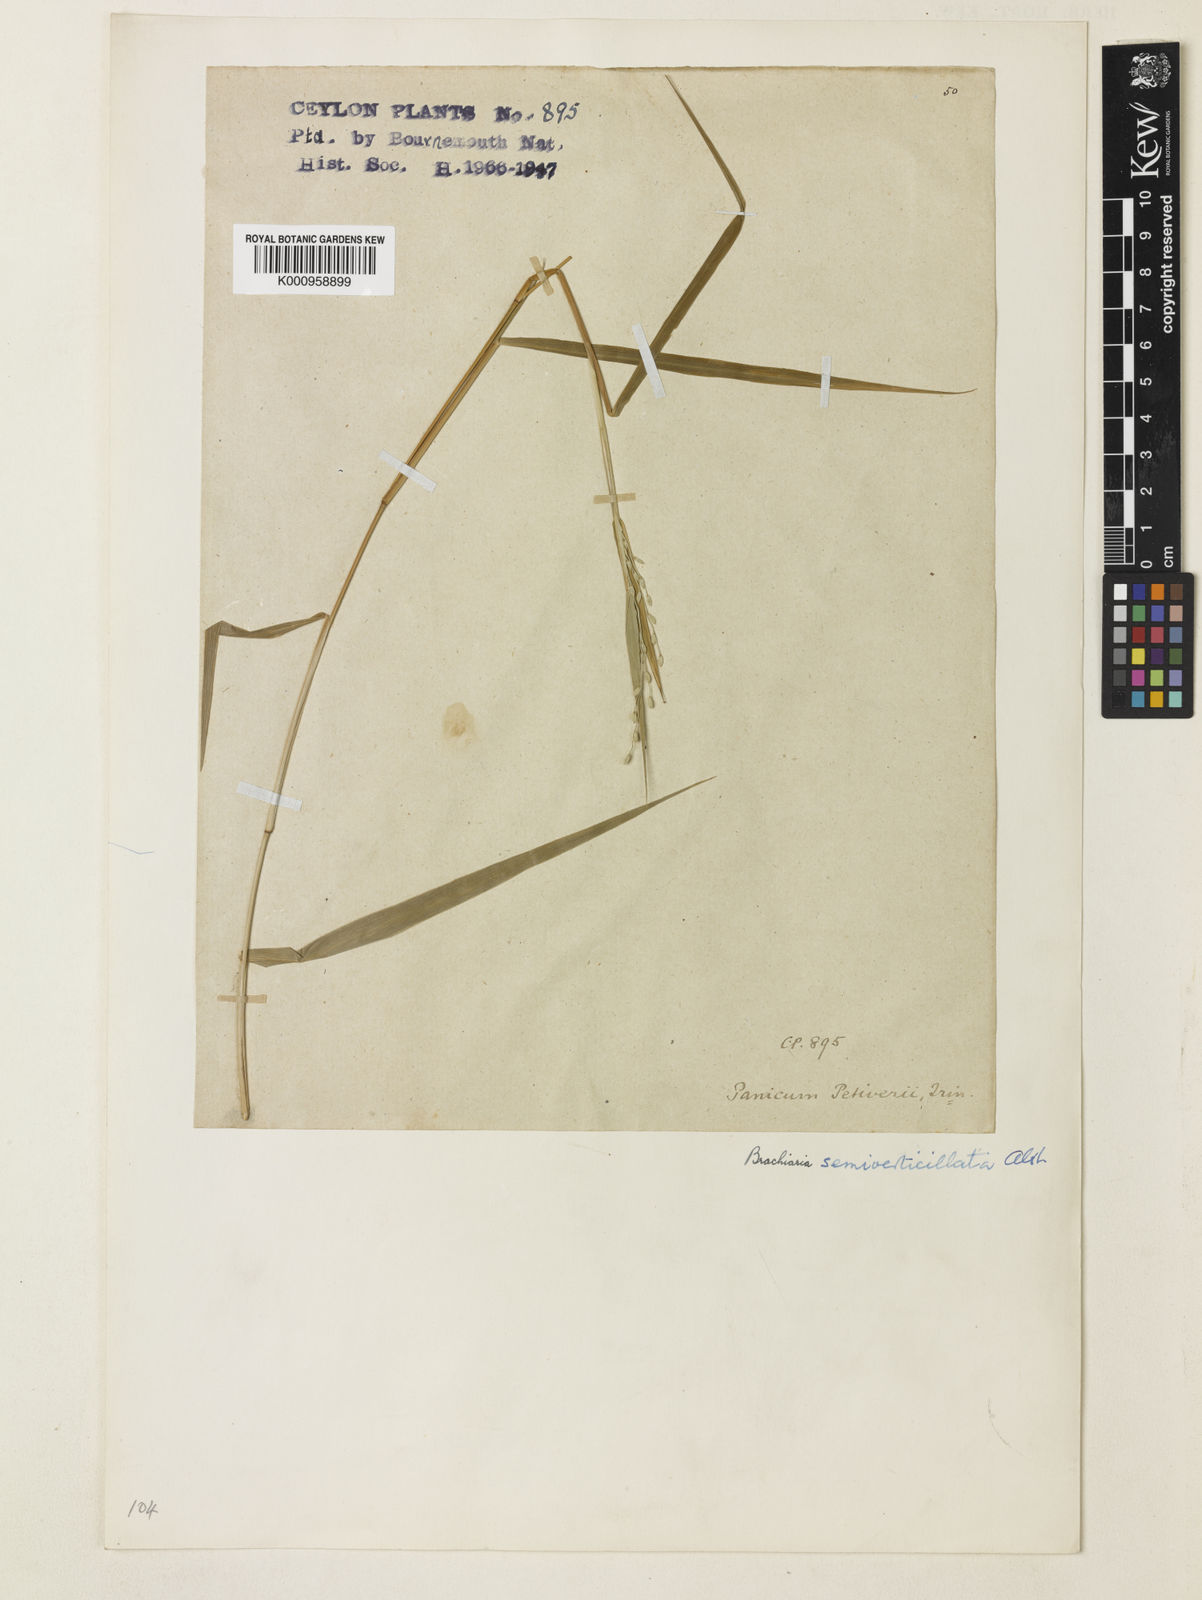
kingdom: Plantae
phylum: Tracheophyta
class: Liliopsida
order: Poales
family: Poaceae
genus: Urochloa
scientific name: Urochloa Brachiaria semiverticillata
